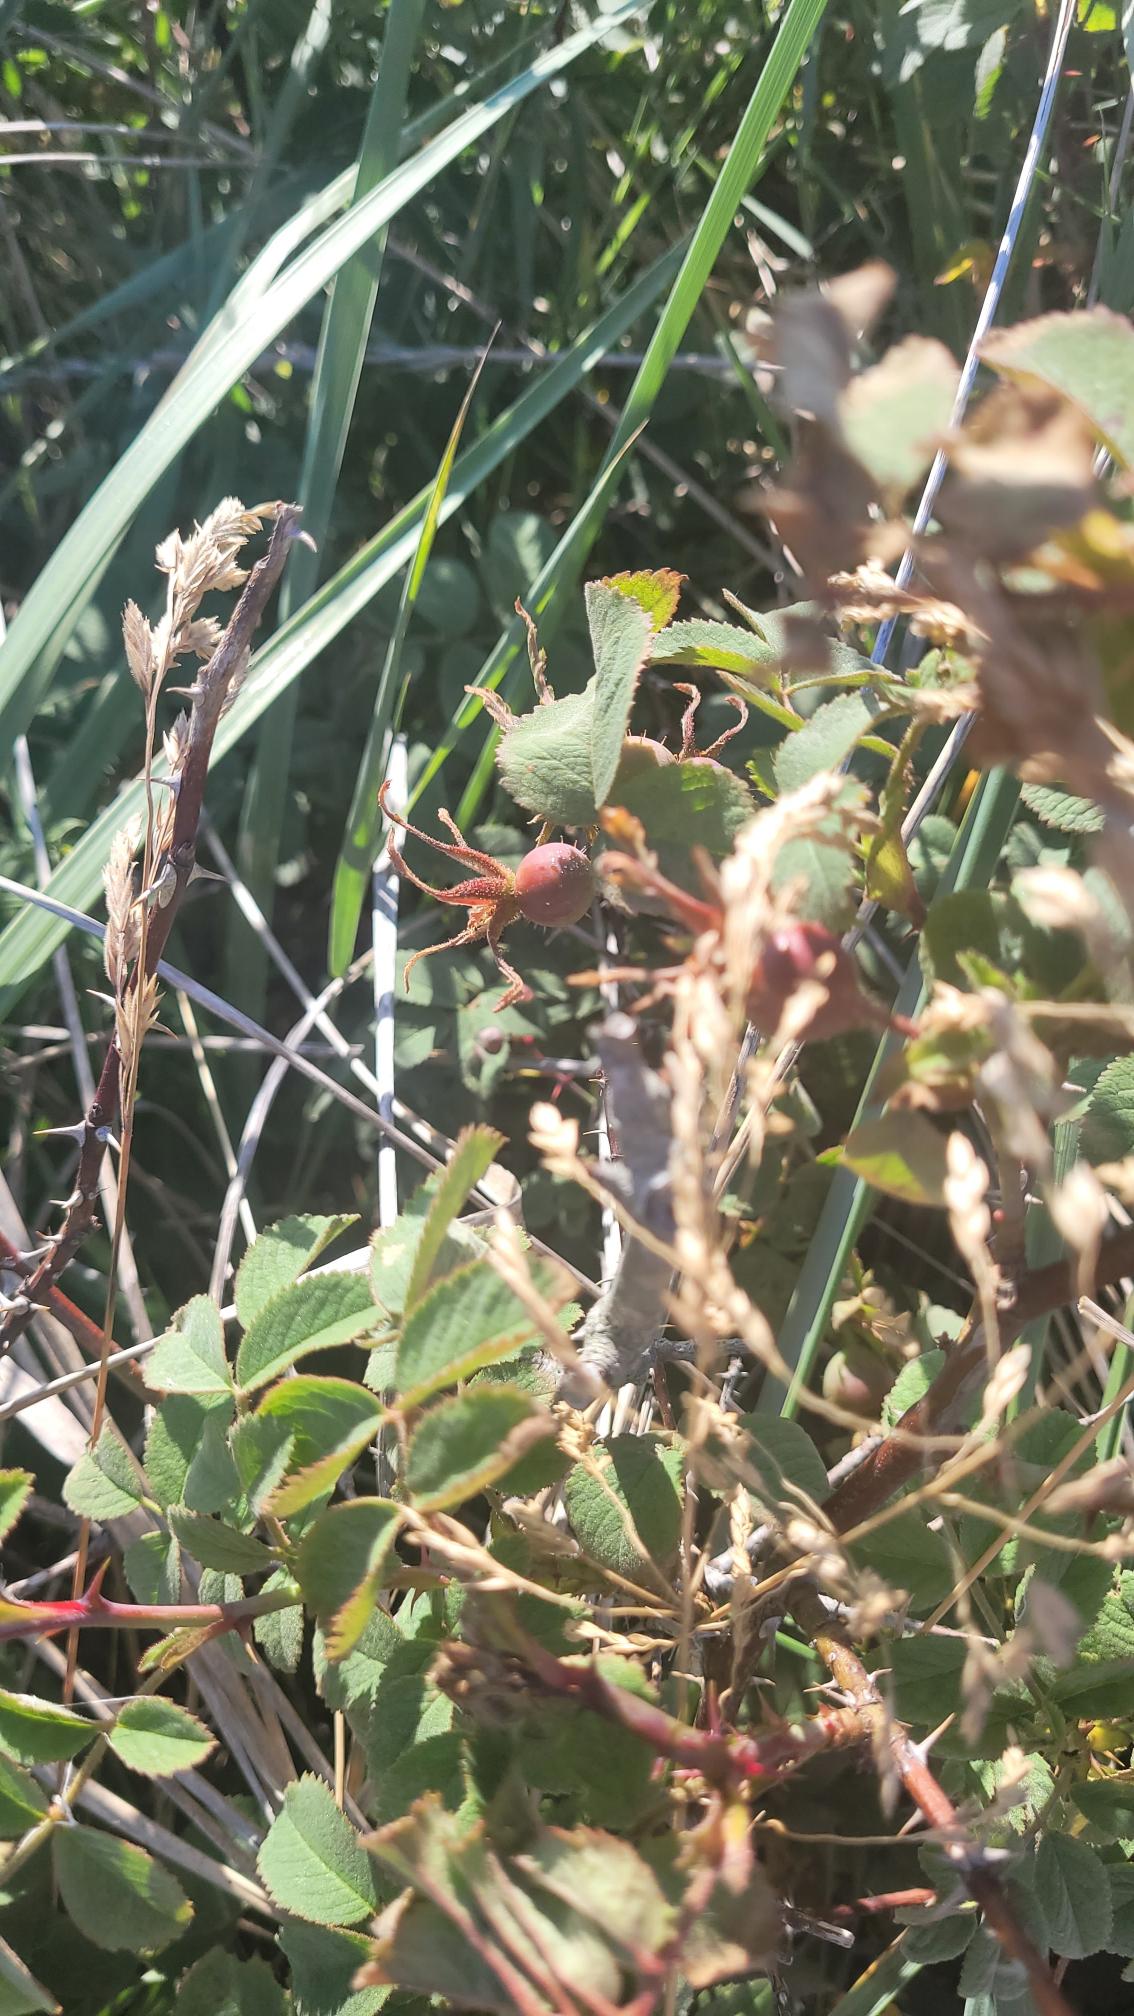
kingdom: Plantae
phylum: Tracheophyta
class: Magnoliopsida
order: Rosales
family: Rosaceae
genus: Rosa
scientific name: Rosa mollis
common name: Blød filt-rose
